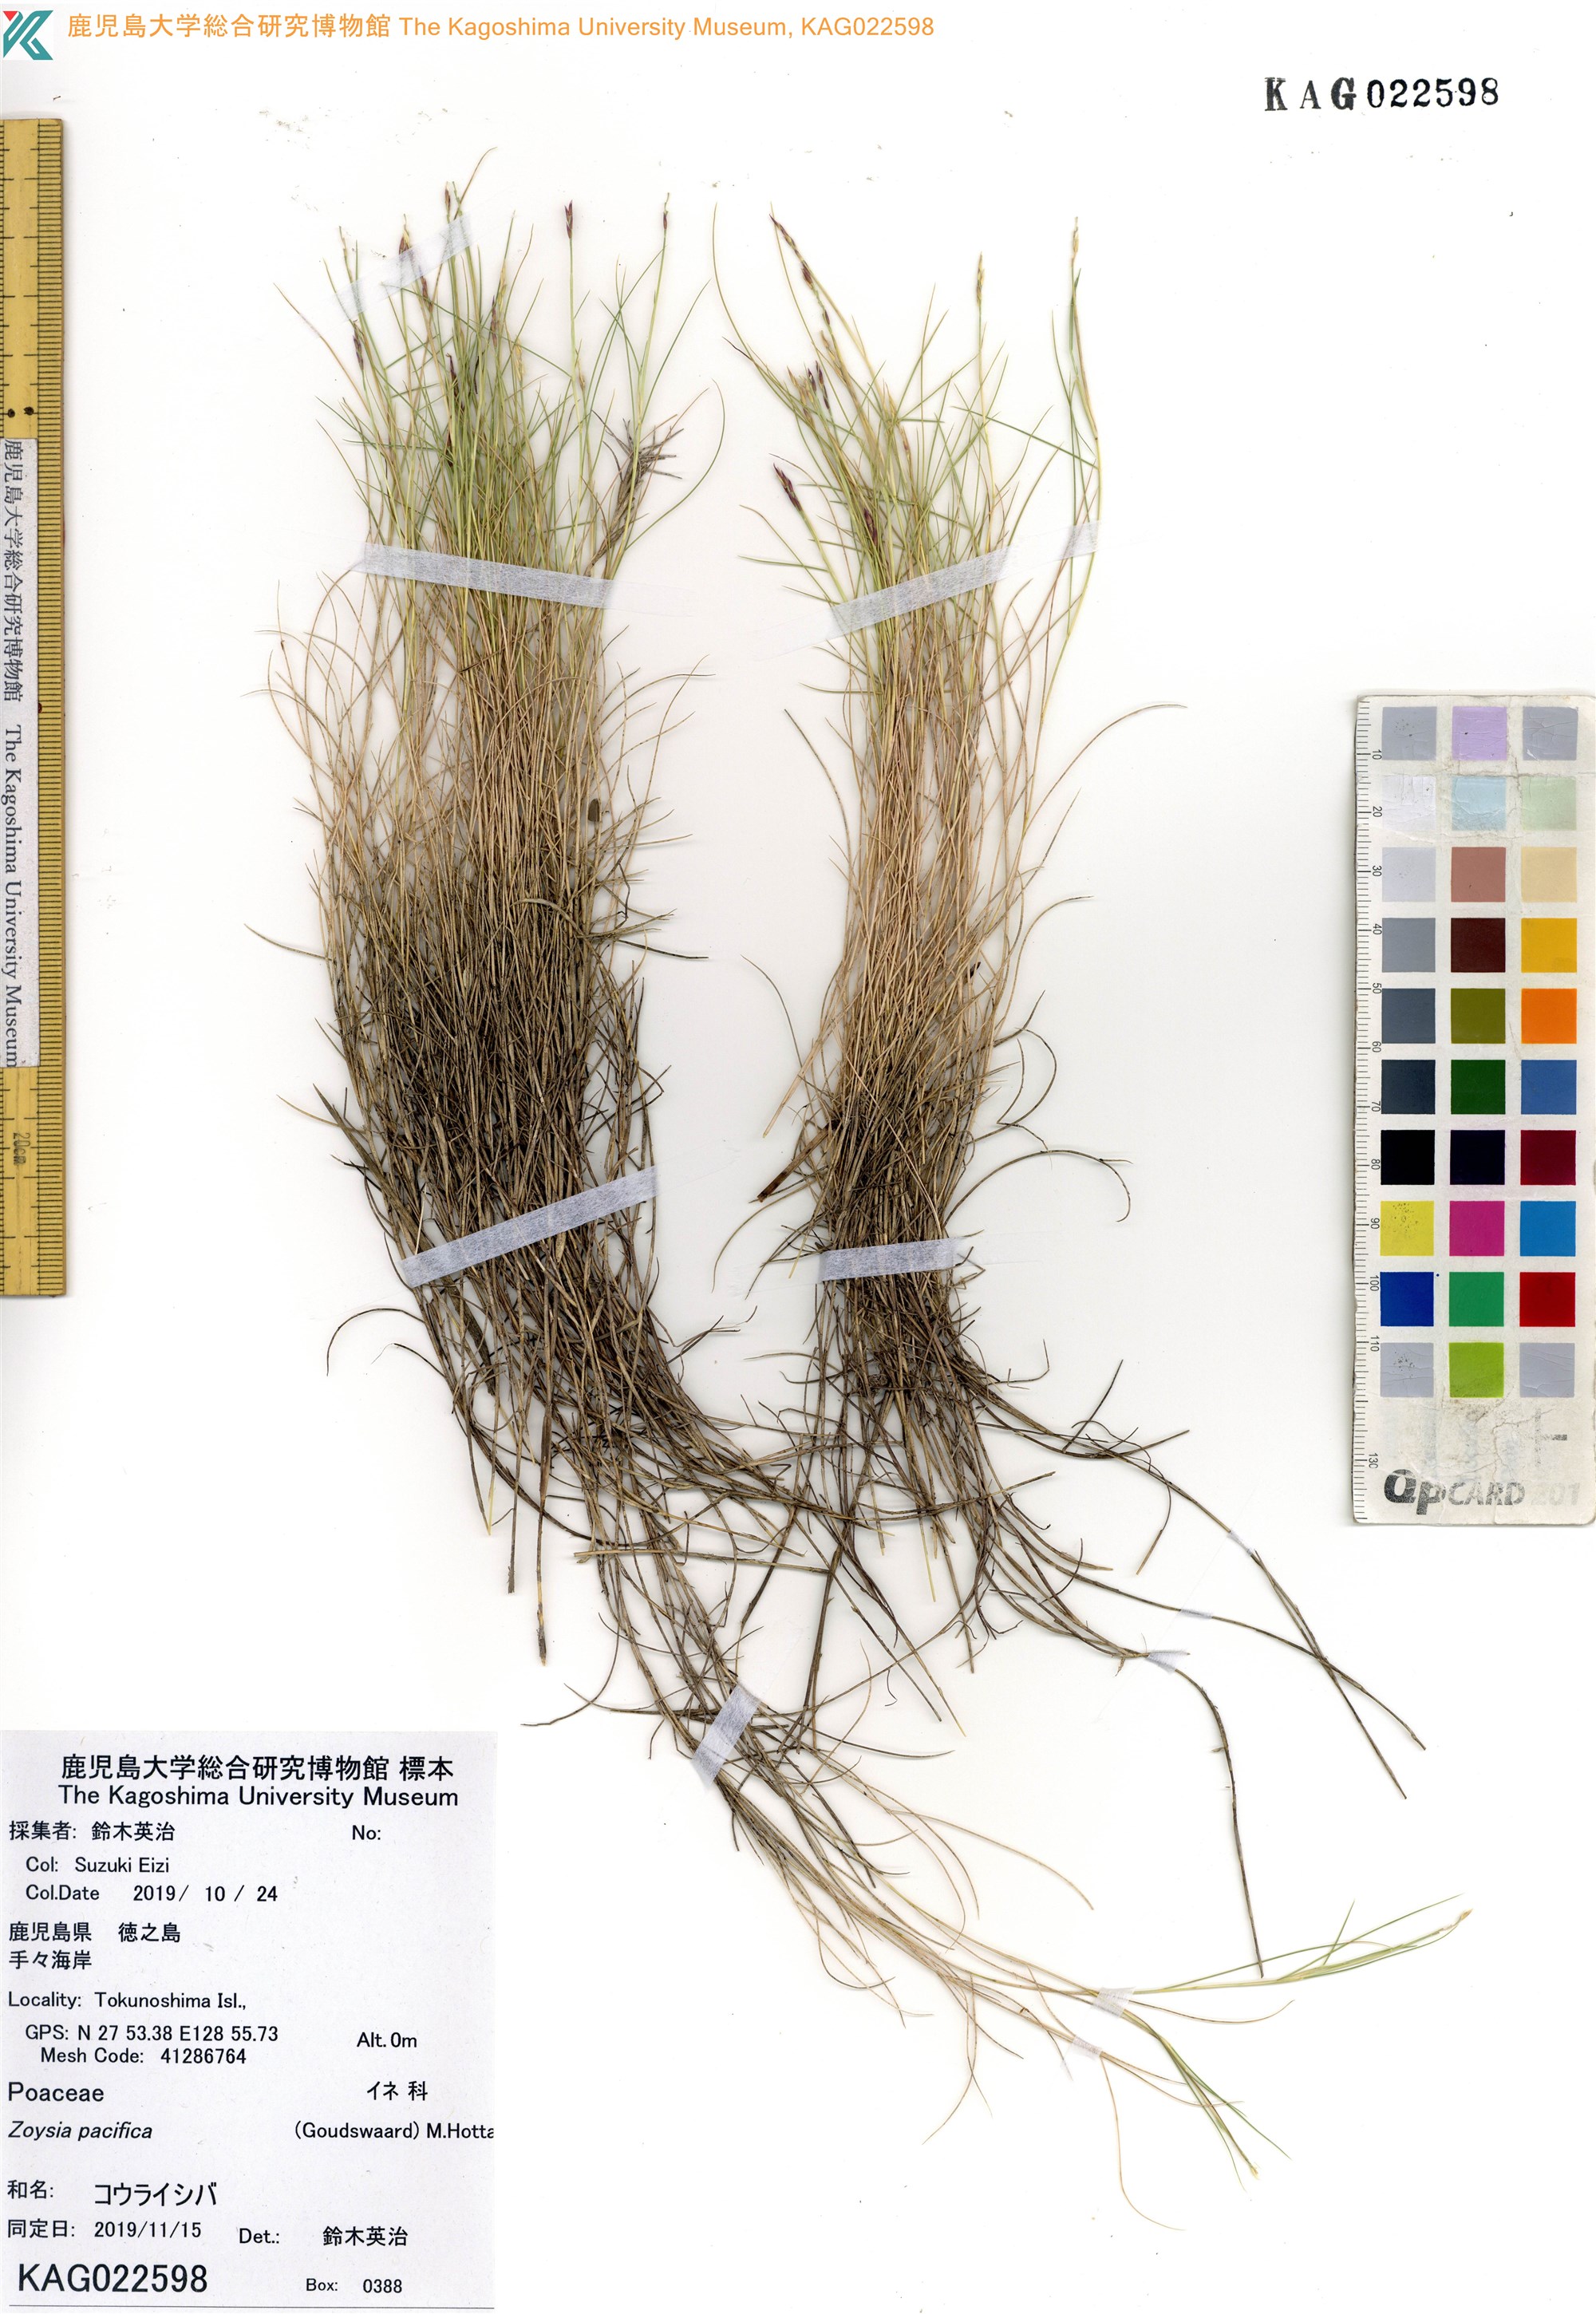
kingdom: Plantae
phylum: Tracheophyta
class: Liliopsida
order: Poales
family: Poaceae
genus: Zoysia
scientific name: Zoysia matrella
